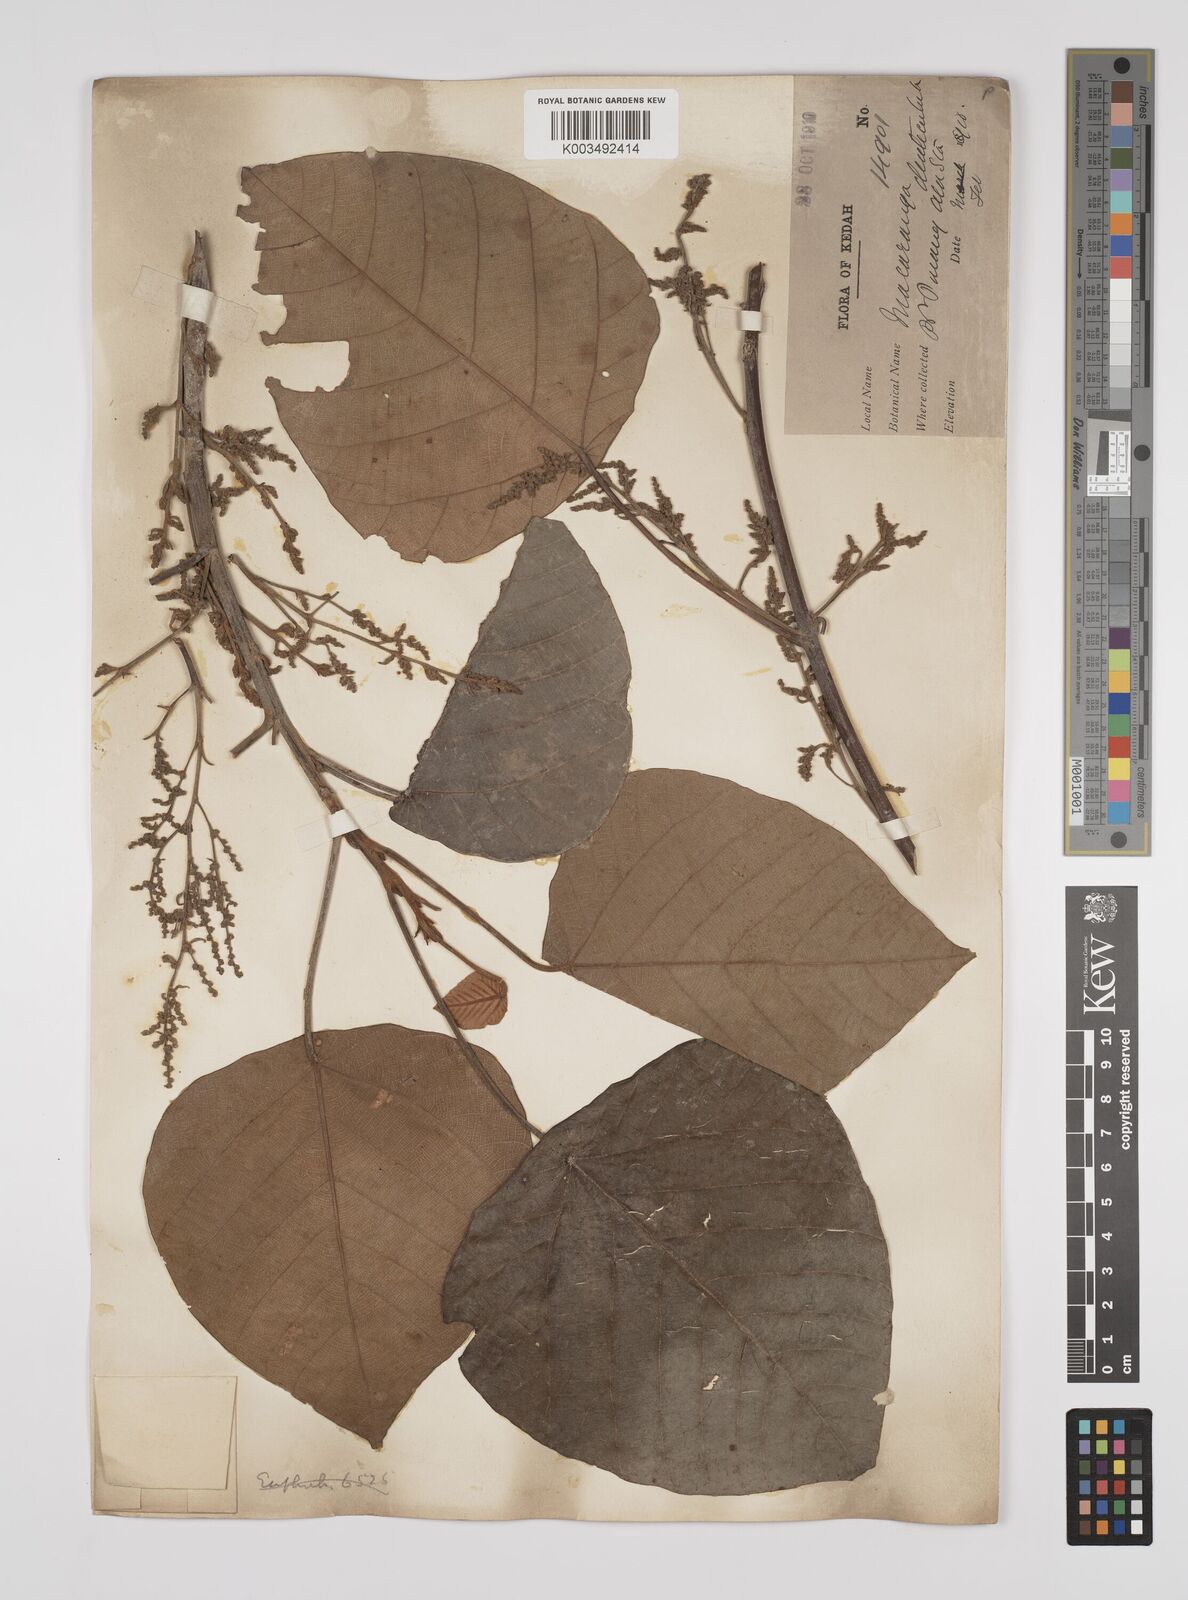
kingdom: Plantae
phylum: Tracheophyta
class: Magnoliopsida
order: Malpighiales
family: Euphorbiaceae
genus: Macaranga
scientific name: Macaranga denticulata
